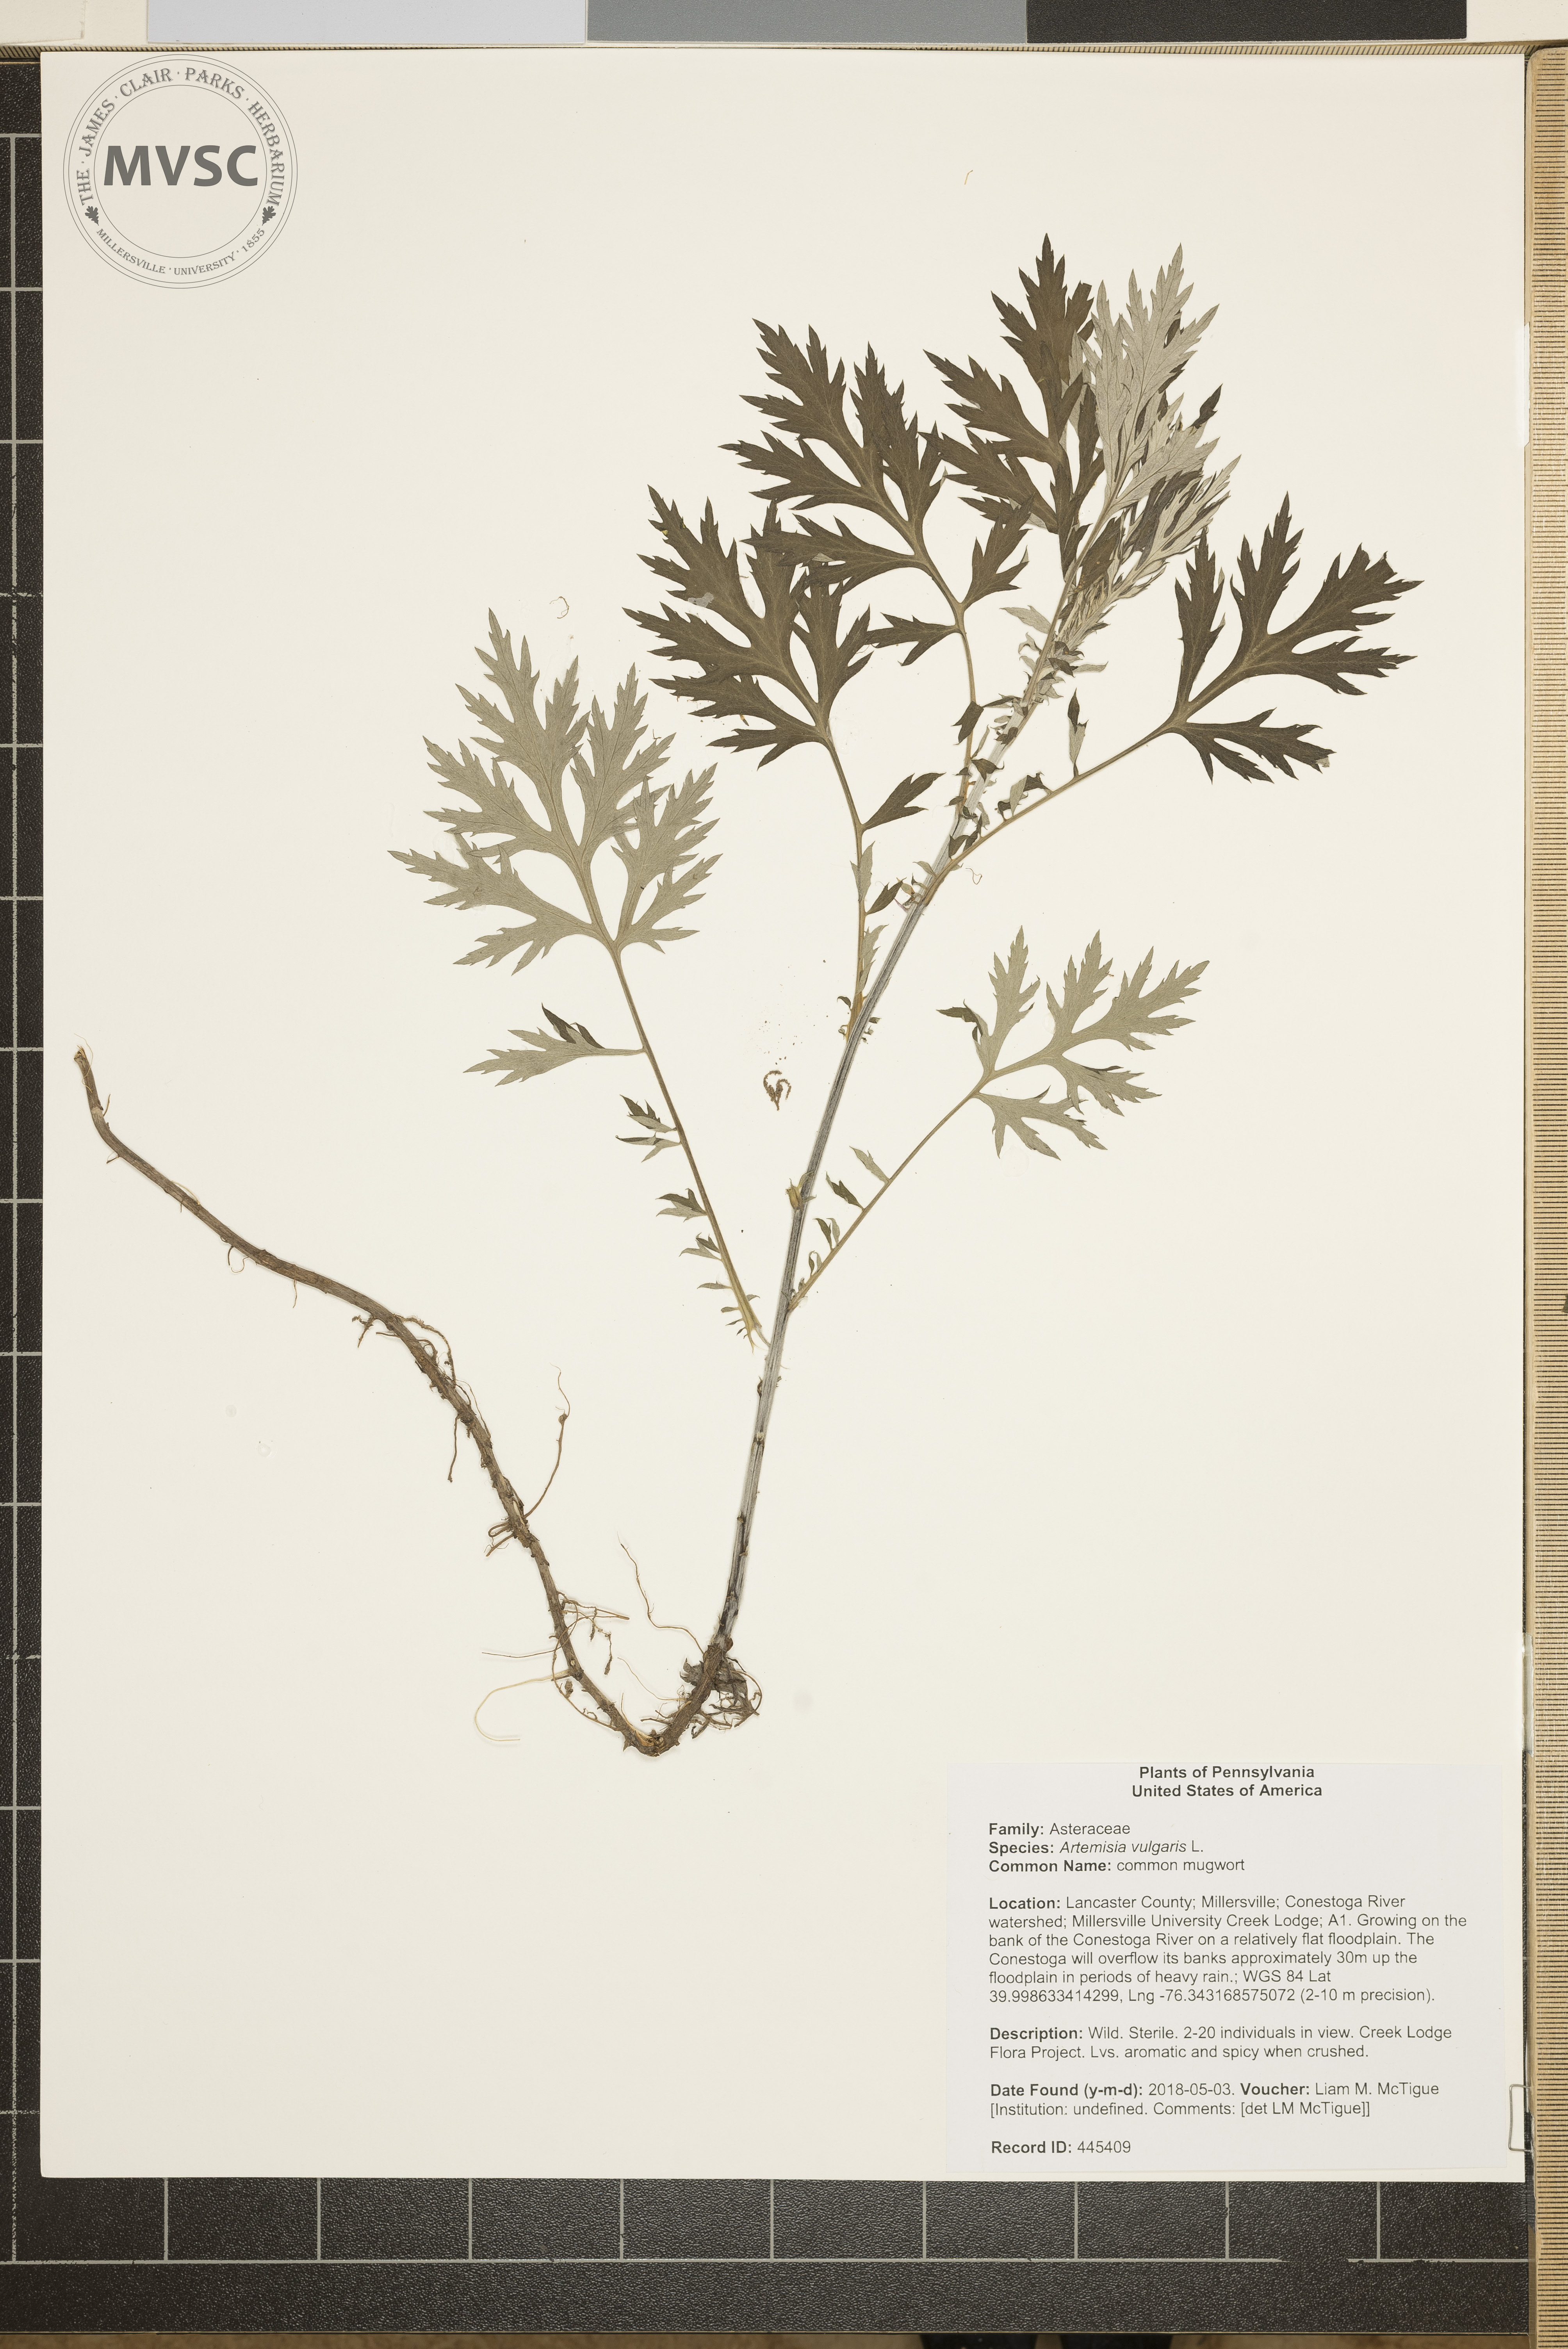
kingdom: Plantae
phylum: Tracheophyta
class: Magnoliopsida
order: Asterales
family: Asteraceae
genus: Artemisia
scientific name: Artemisia vulgaris
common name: common mugwort
